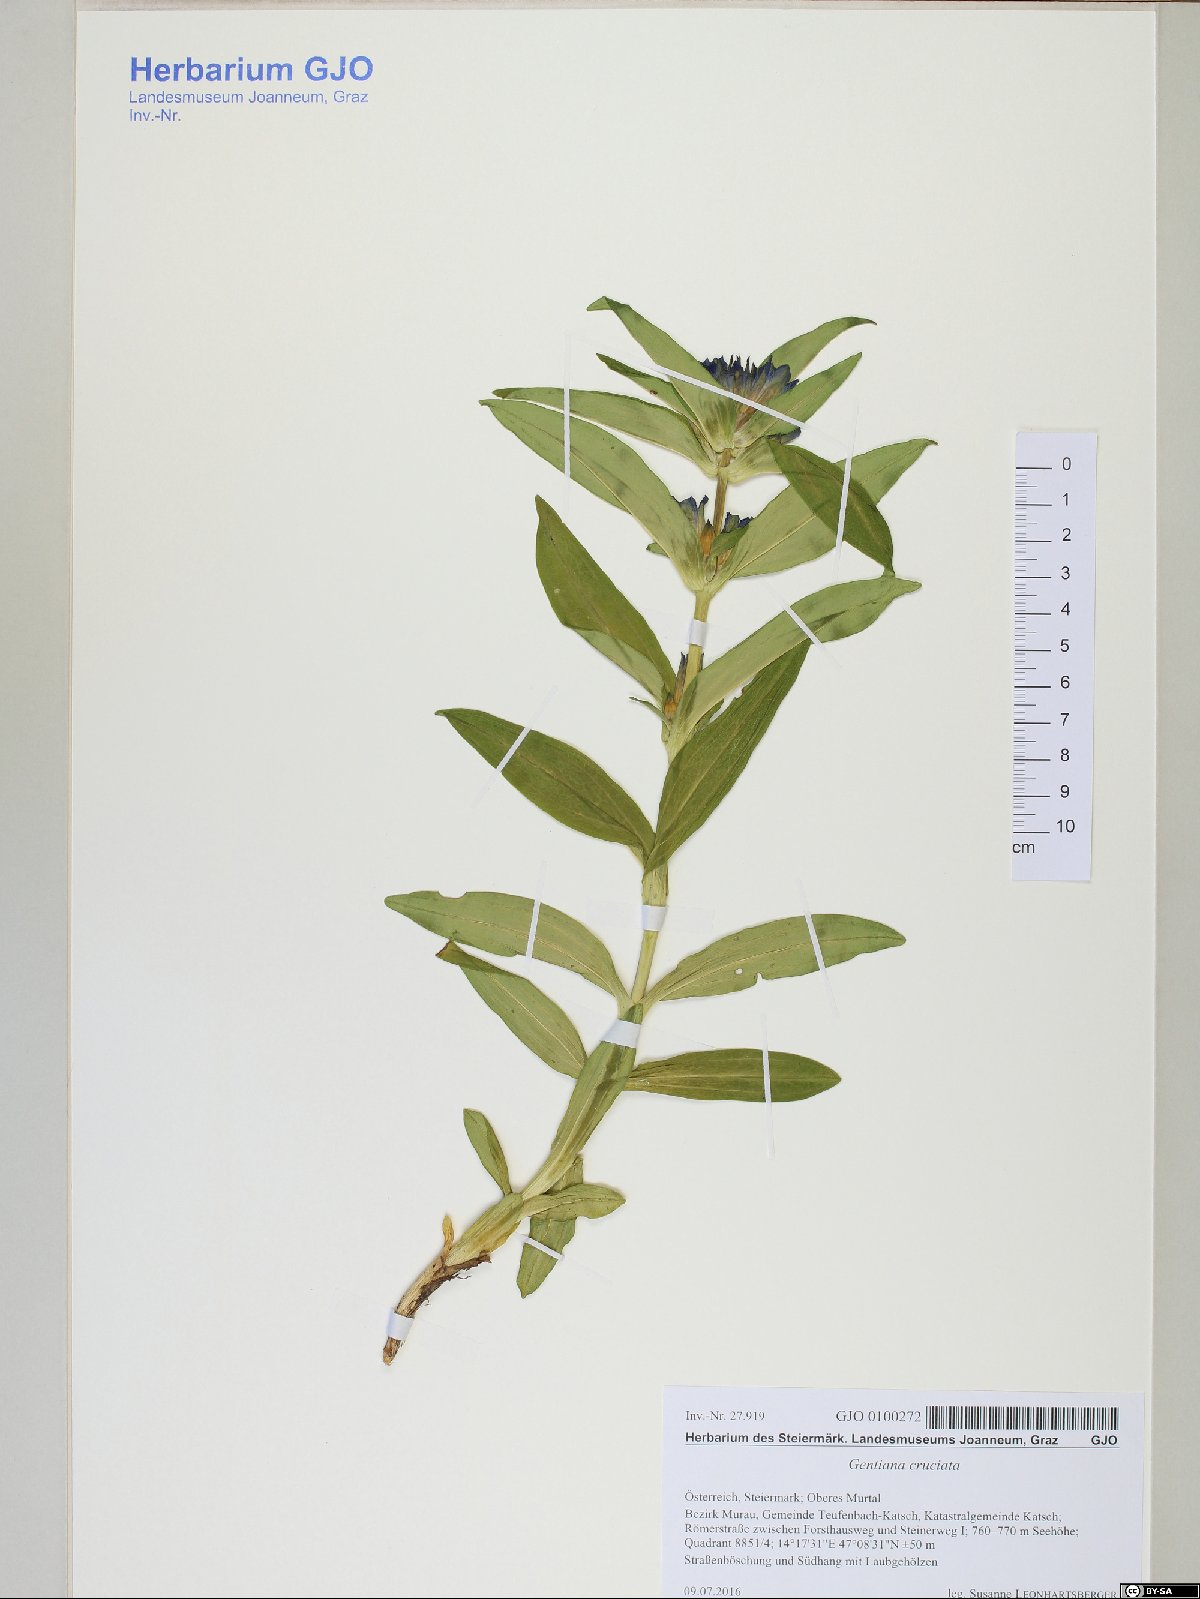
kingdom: Plantae
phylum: Tracheophyta
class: Magnoliopsida
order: Gentianales
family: Gentianaceae
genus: Gentiana
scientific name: Gentiana cruciata
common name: Cross gentian
